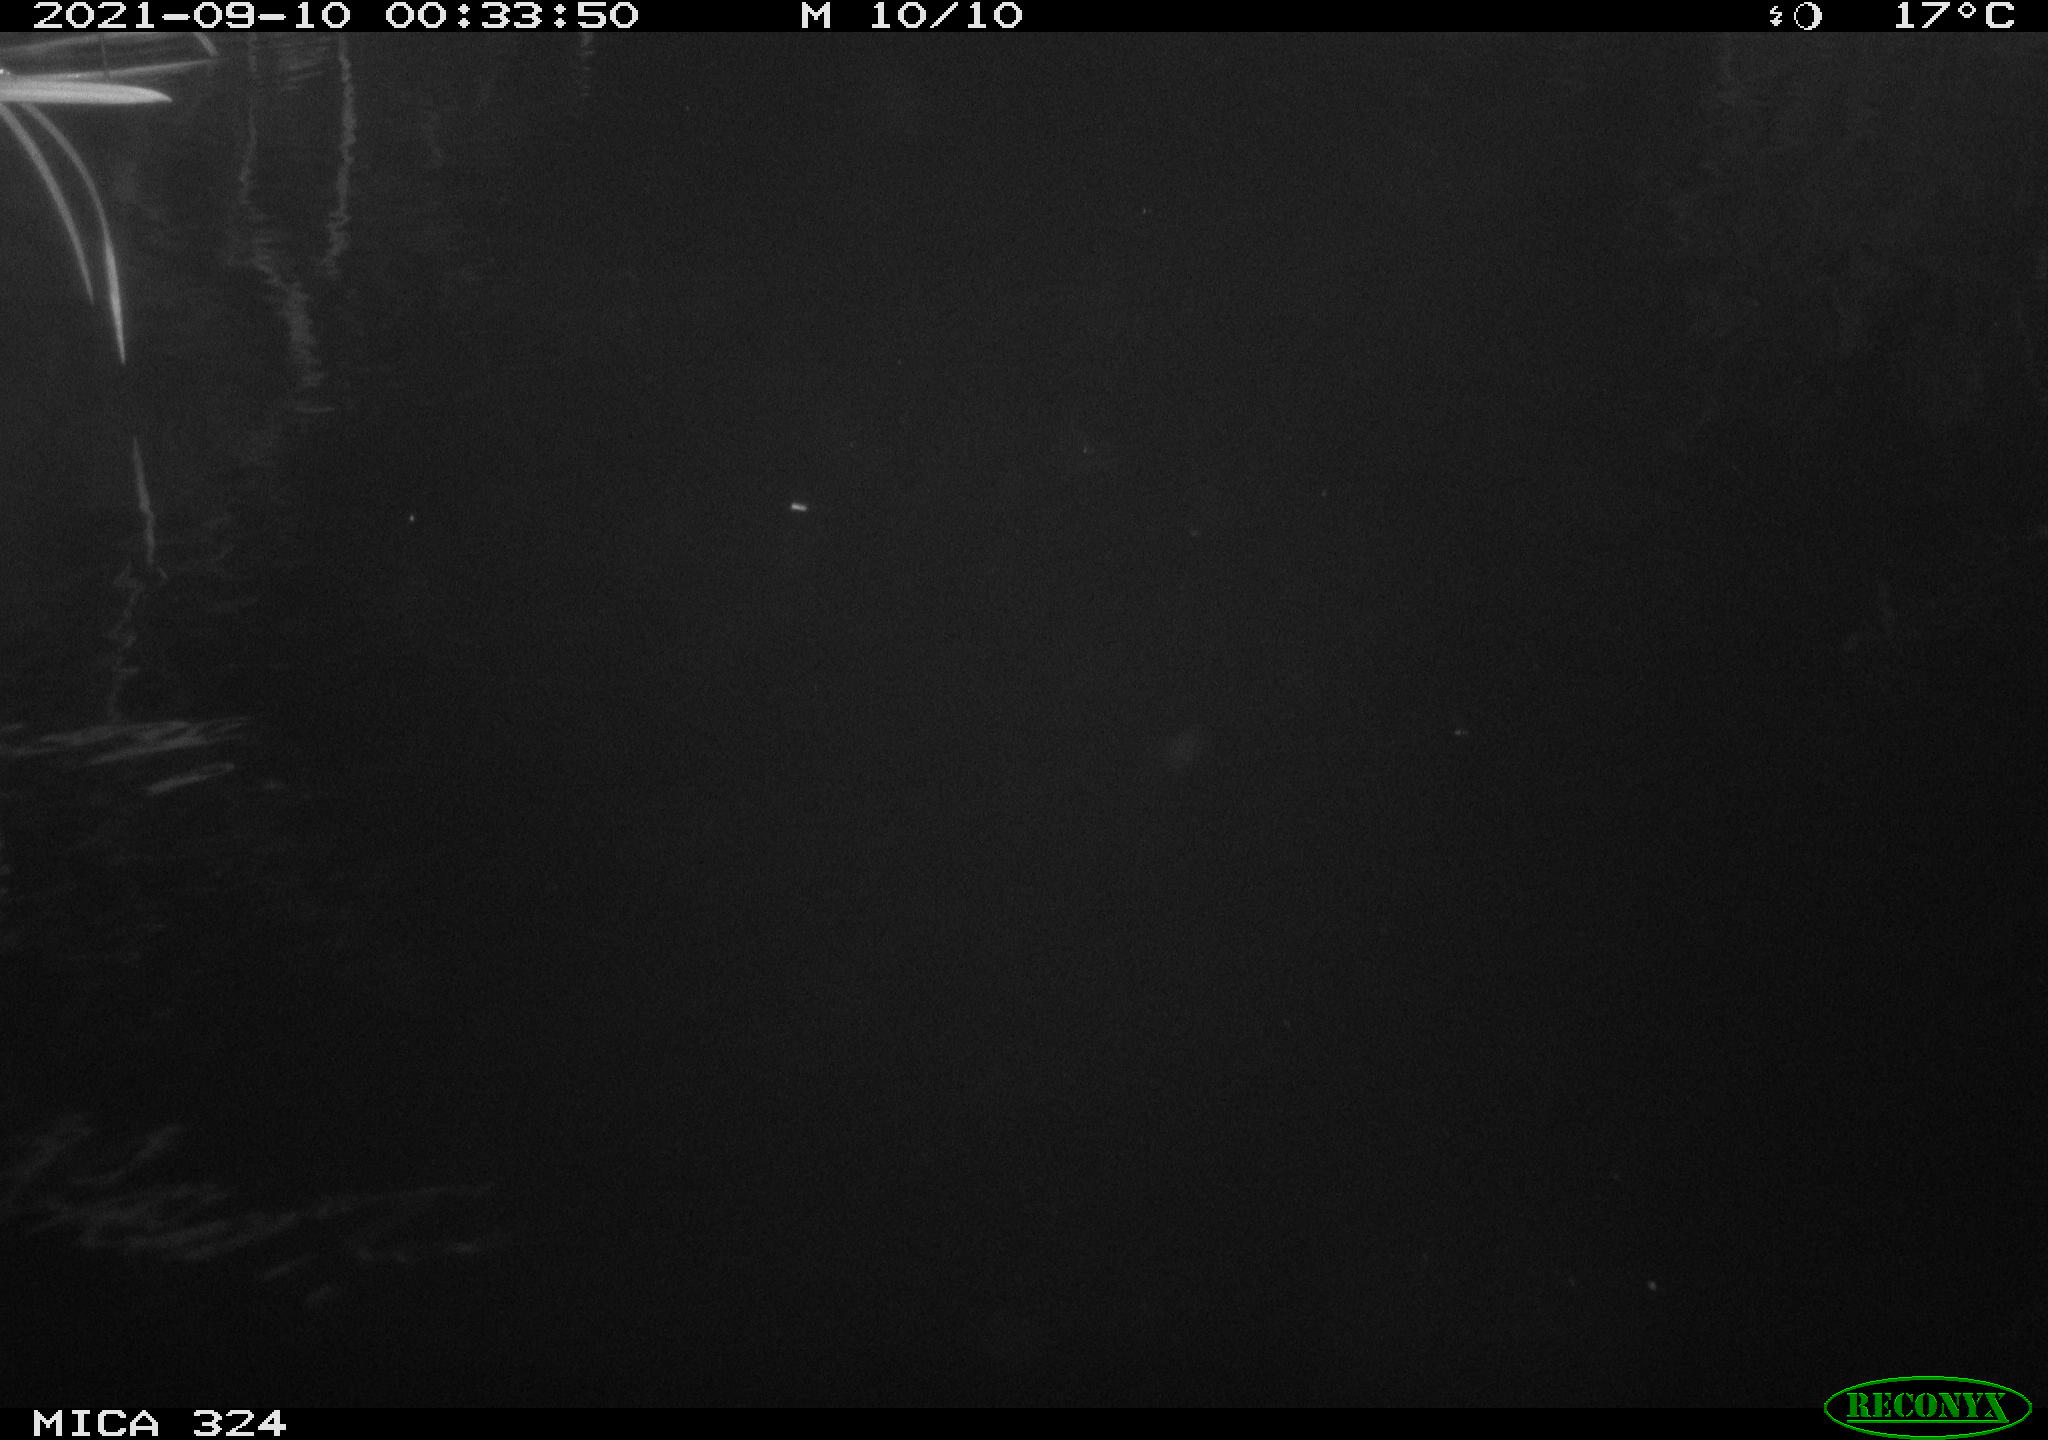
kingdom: Animalia
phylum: Chordata
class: Mammalia
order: Rodentia
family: Cricetidae
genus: Ondatra
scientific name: Ondatra zibethicus
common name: Muskrat
